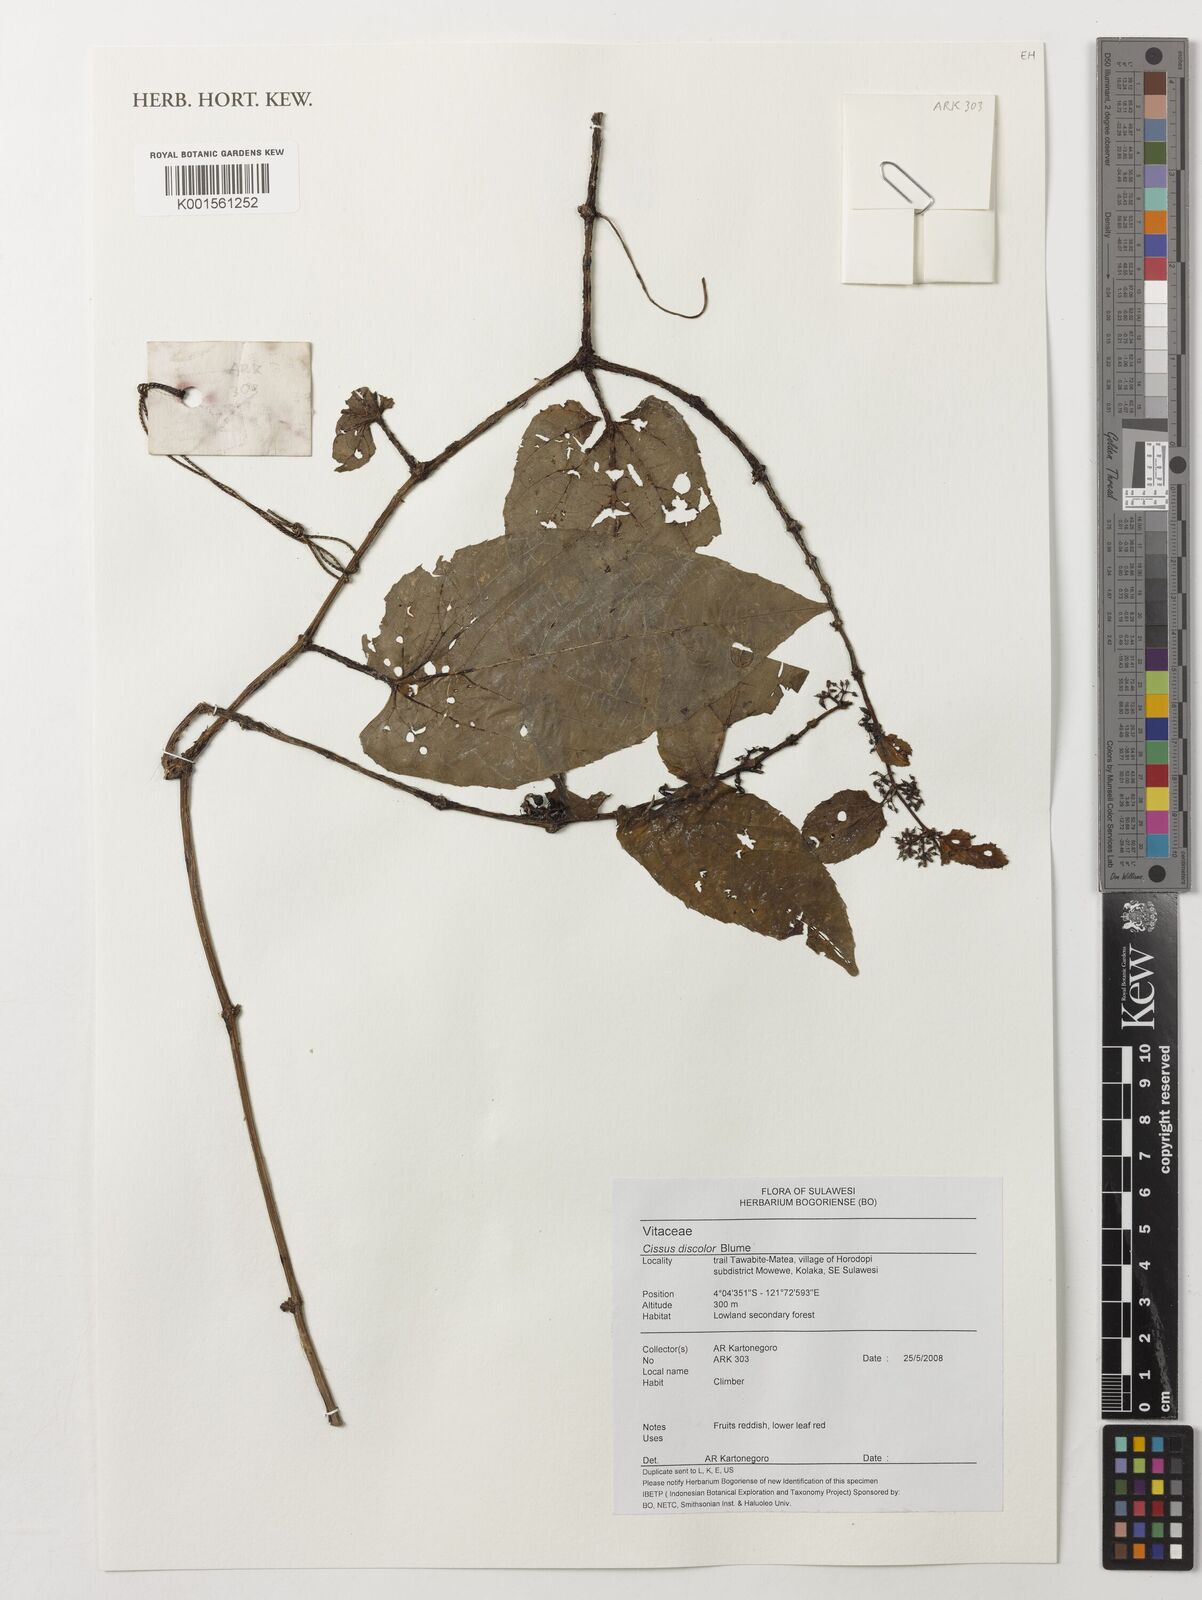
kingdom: Plantae
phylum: Tracheophyta
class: Magnoliopsida
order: Vitales
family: Vitaceae
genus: Cissus
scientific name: Cissus discolor
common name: Climbing-begonia
